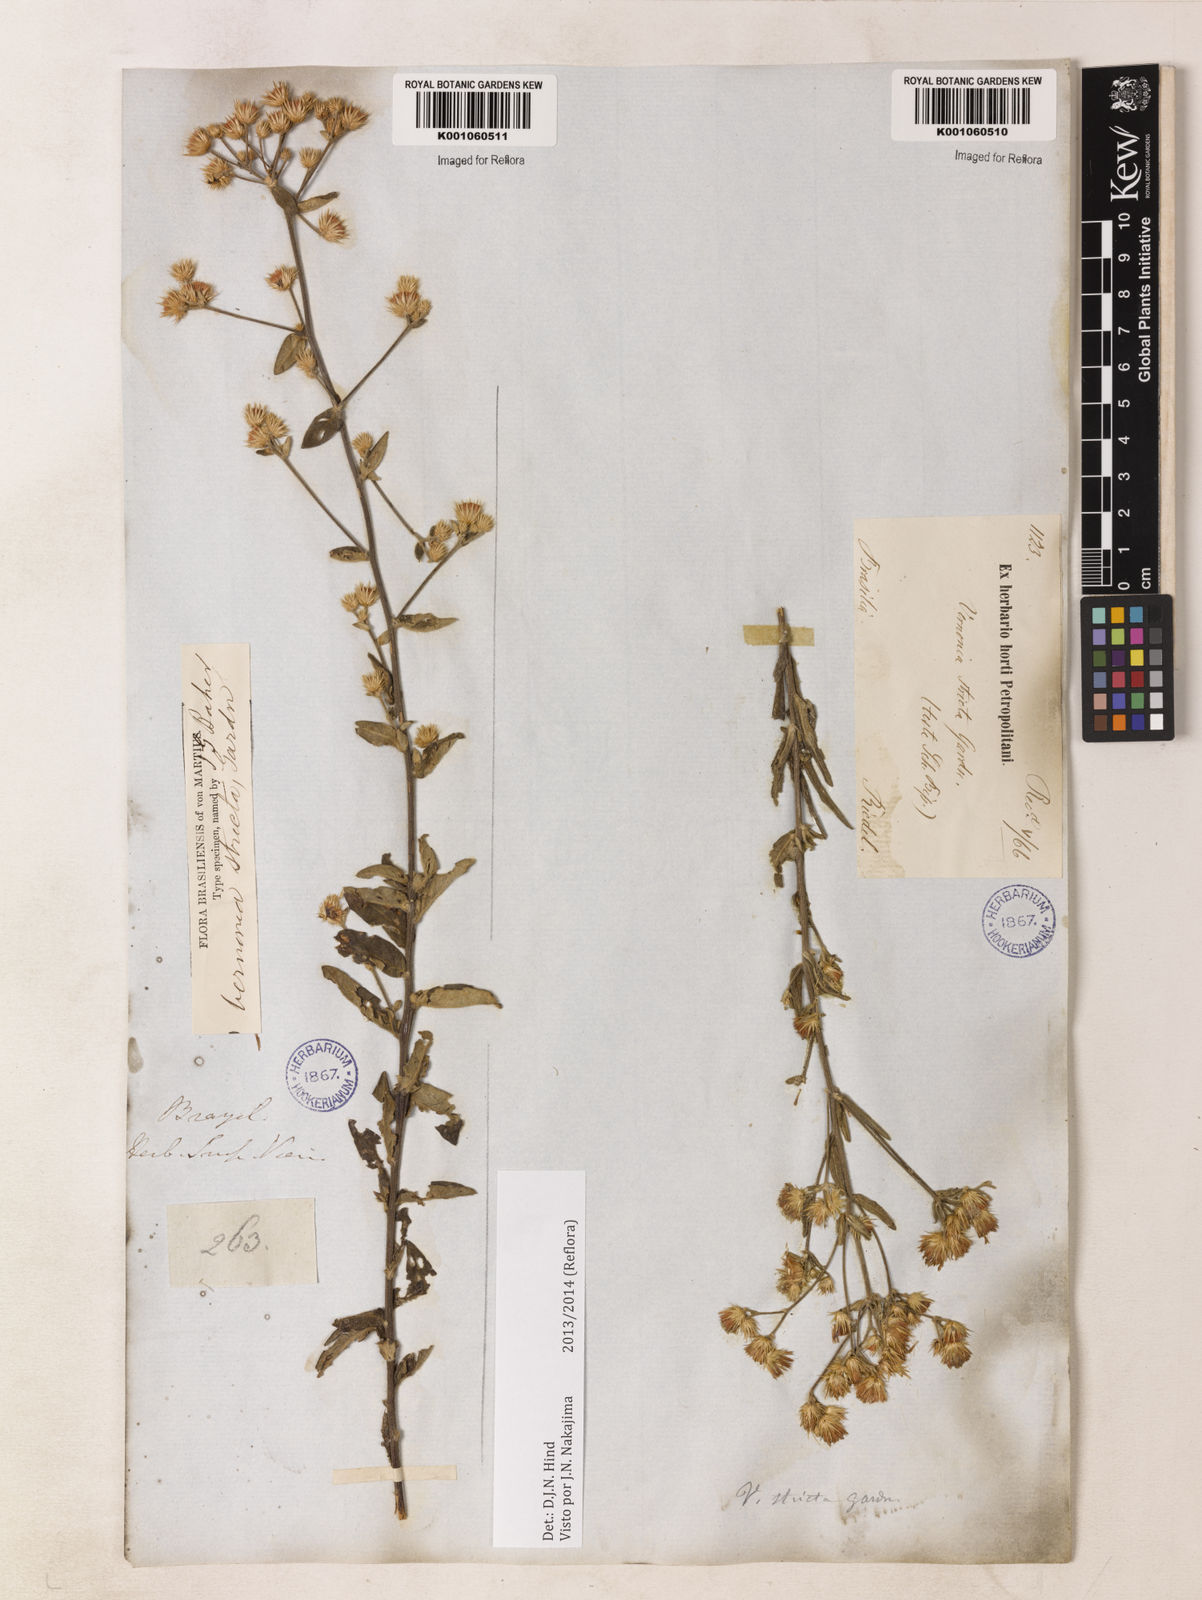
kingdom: Plantae
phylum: Tracheophyta
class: Magnoliopsida
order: Asterales
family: Asteraceae
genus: Echinocoryne
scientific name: Echinocoryne stricta
